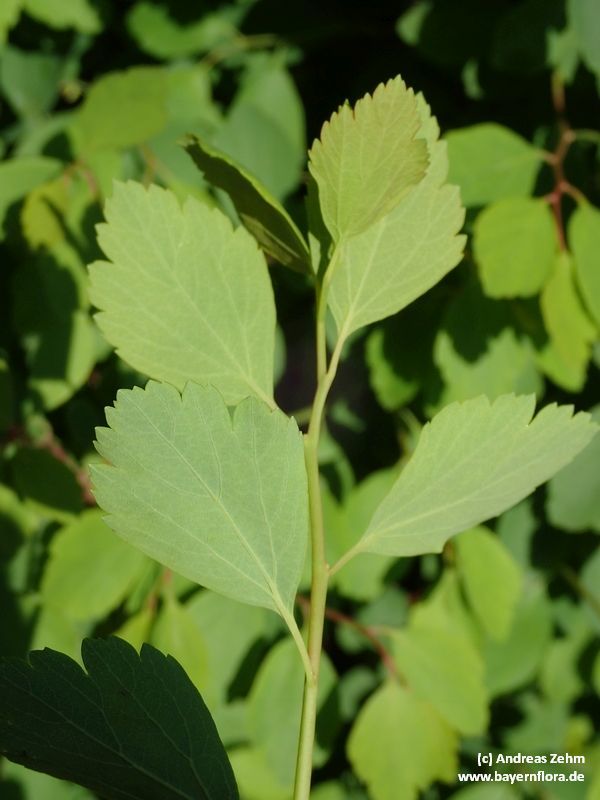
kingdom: Plantae
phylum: Tracheophyta
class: Magnoliopsida
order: Rosales
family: Rosaceae
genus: Spiraea
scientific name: Spiraea vanhouttei
